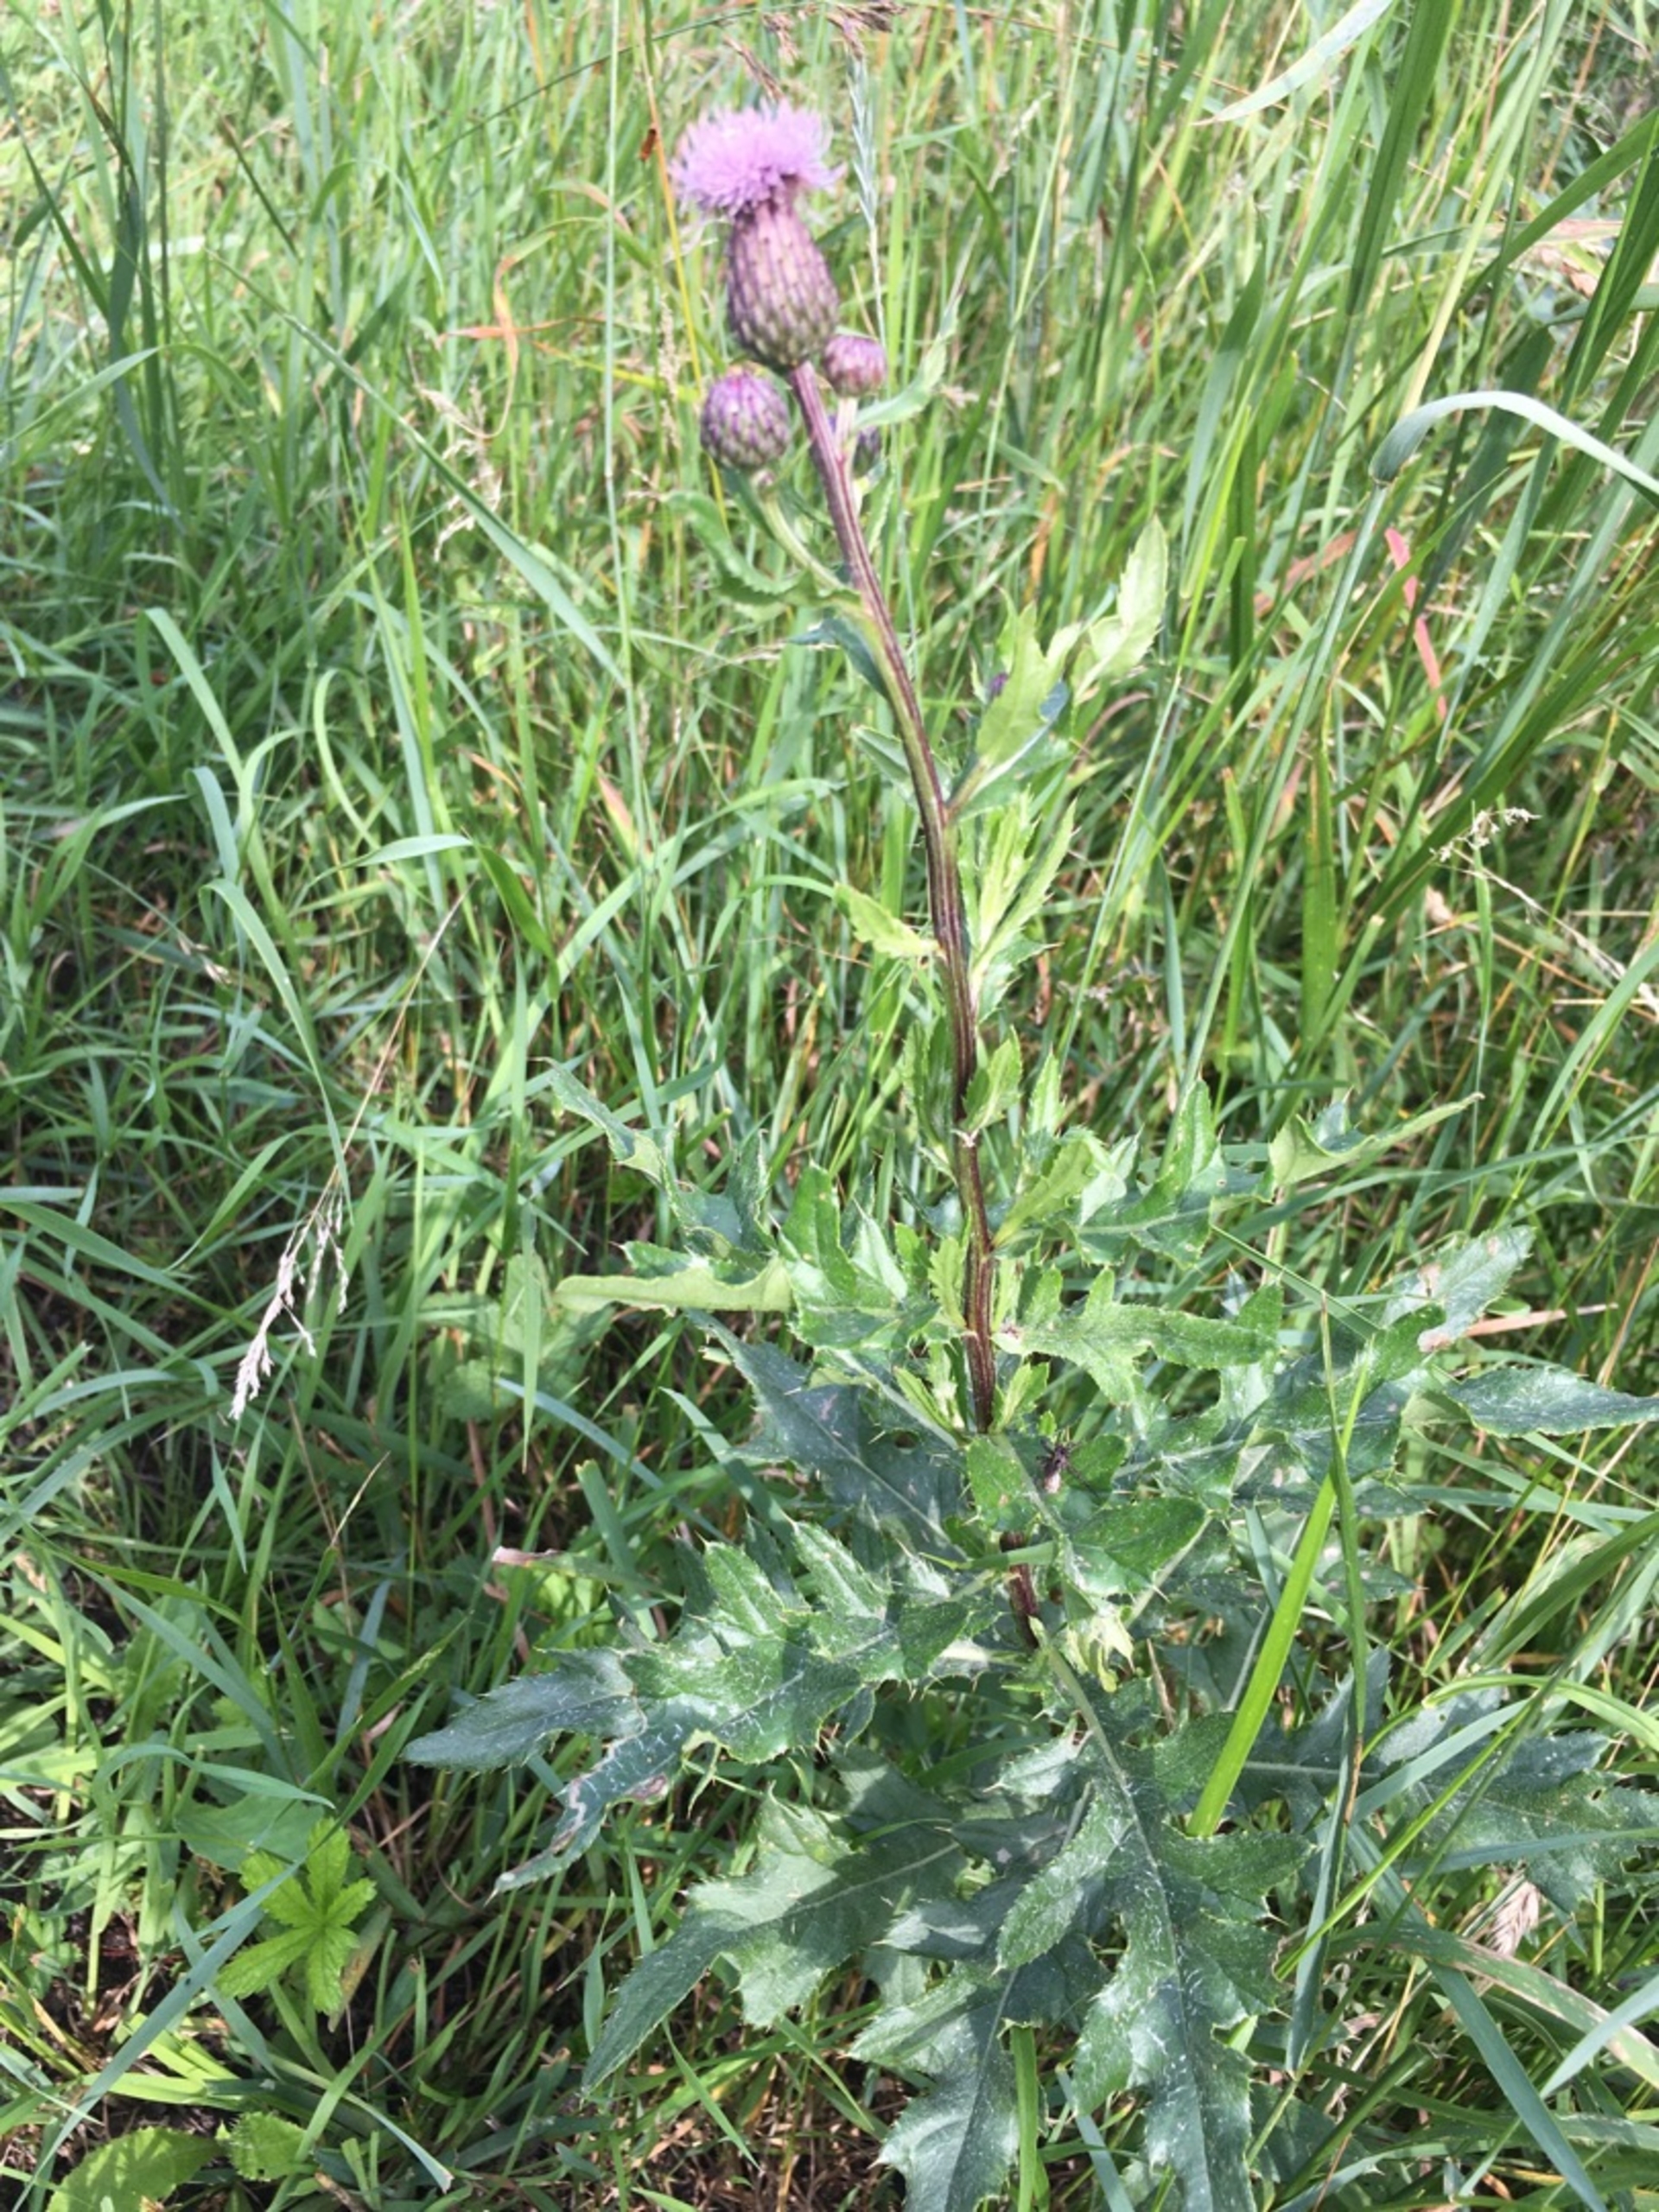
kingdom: Plantae
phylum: Tracheophyta
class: Magnoliopsida
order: Asterales
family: Asteraceae
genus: Cirsium
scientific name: Cirsium arvense
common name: Ager-tidsel
